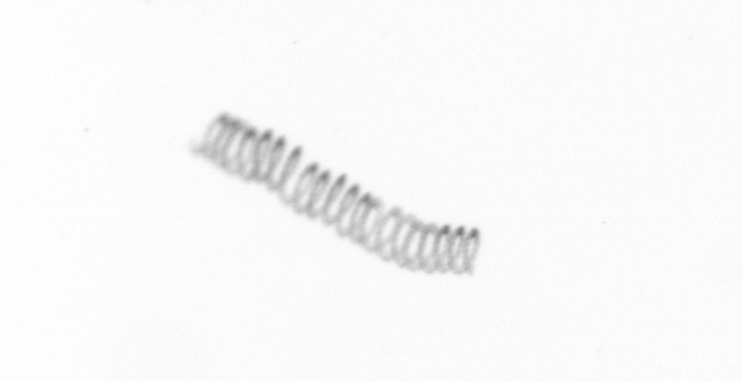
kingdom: Chromista
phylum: Ochrophyta
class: Bacillariophyceae
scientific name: Bacillariophyceae
